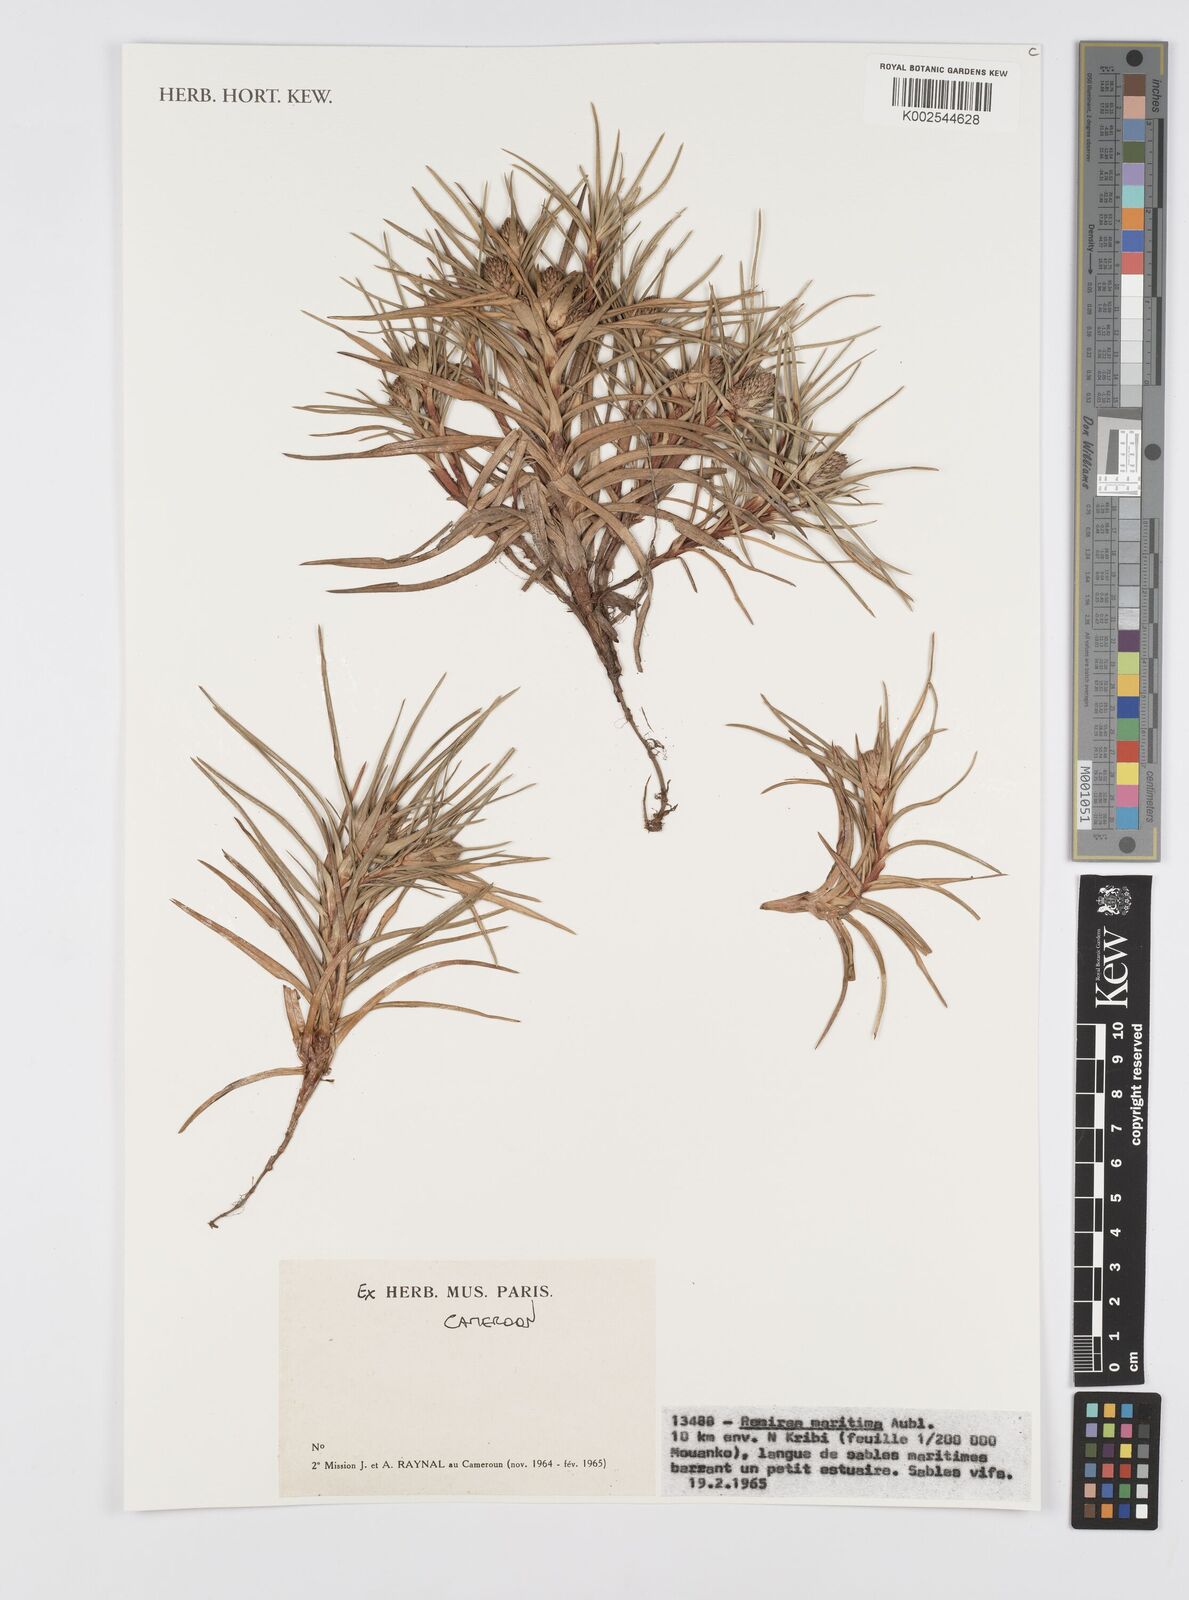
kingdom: Plantae
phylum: Tracheophyta
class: Liliopsida
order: Poales
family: Cyperaceae
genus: Cyperus
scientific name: Cyperus
